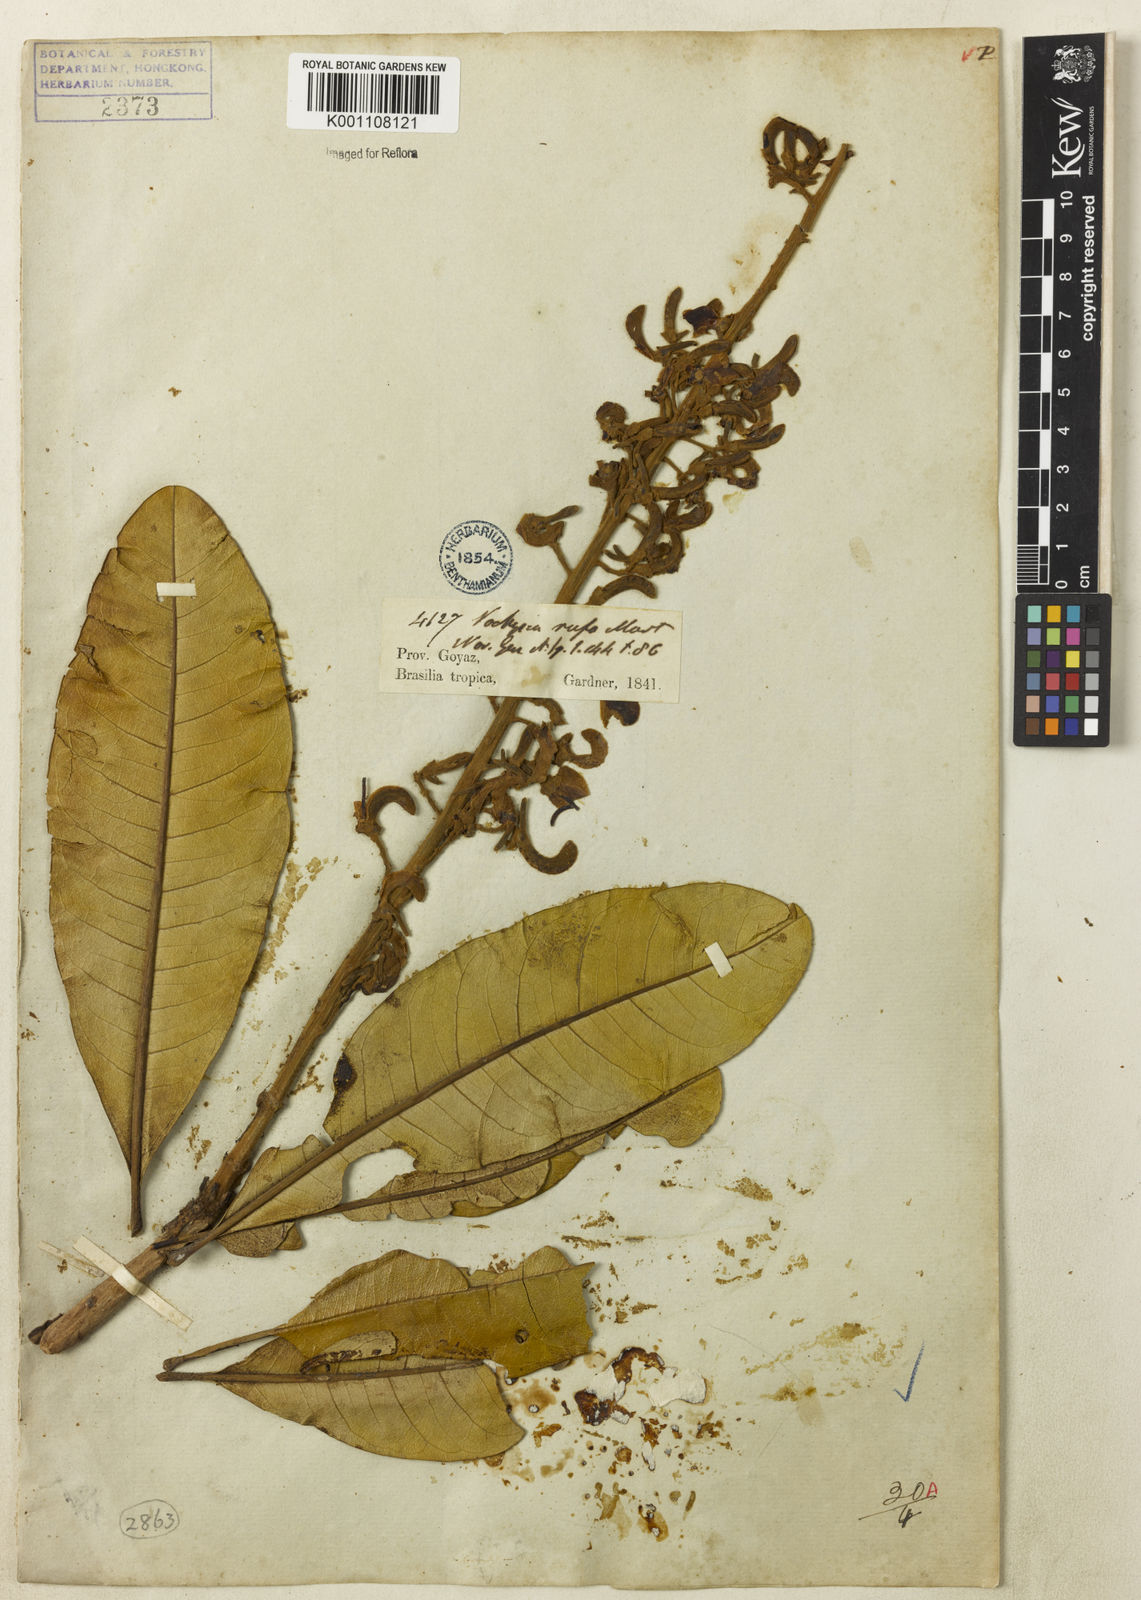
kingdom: Plantae
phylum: Tracheophyta
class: Magnoliopsida
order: Myrtales
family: Vochysiaceae
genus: Vochysia
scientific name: Vochysia rufa
